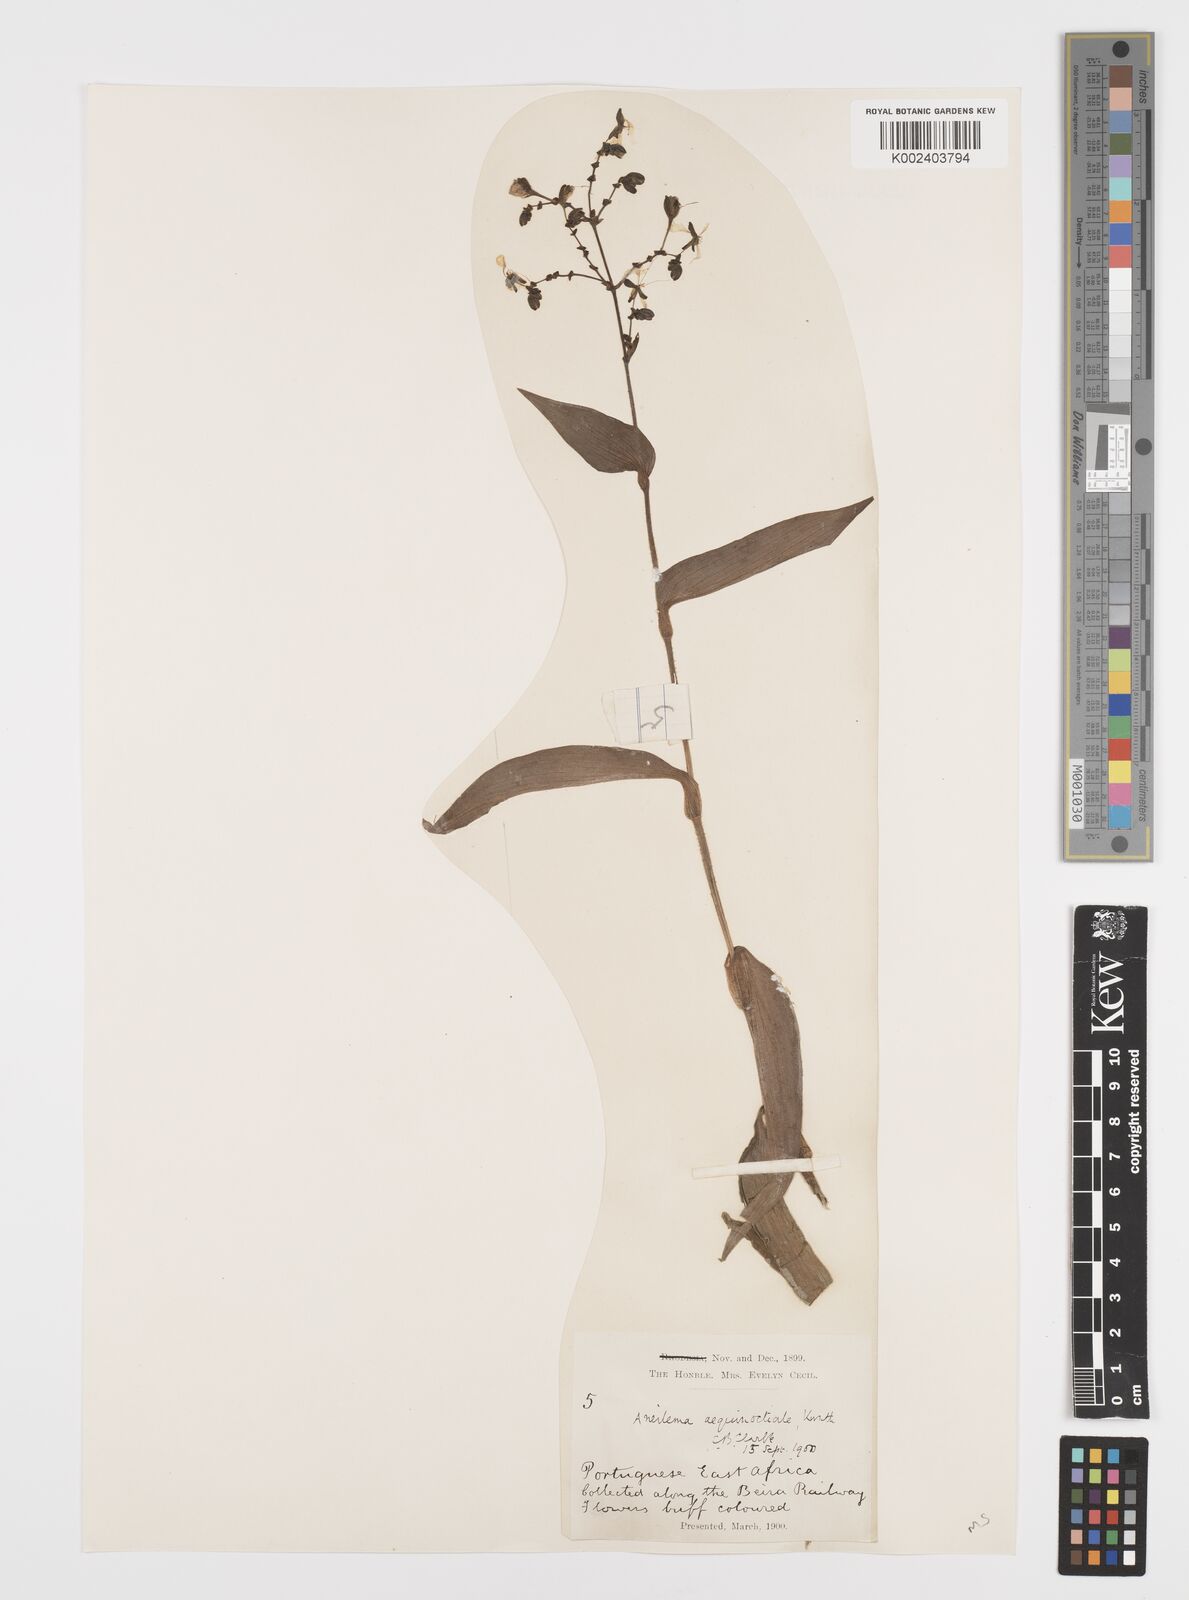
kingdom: Plantae
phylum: Tracheophyta
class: Liliopsida
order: Commelinales
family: Commelinaceae
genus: Aneilema
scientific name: Aneilema aequinoctiale
